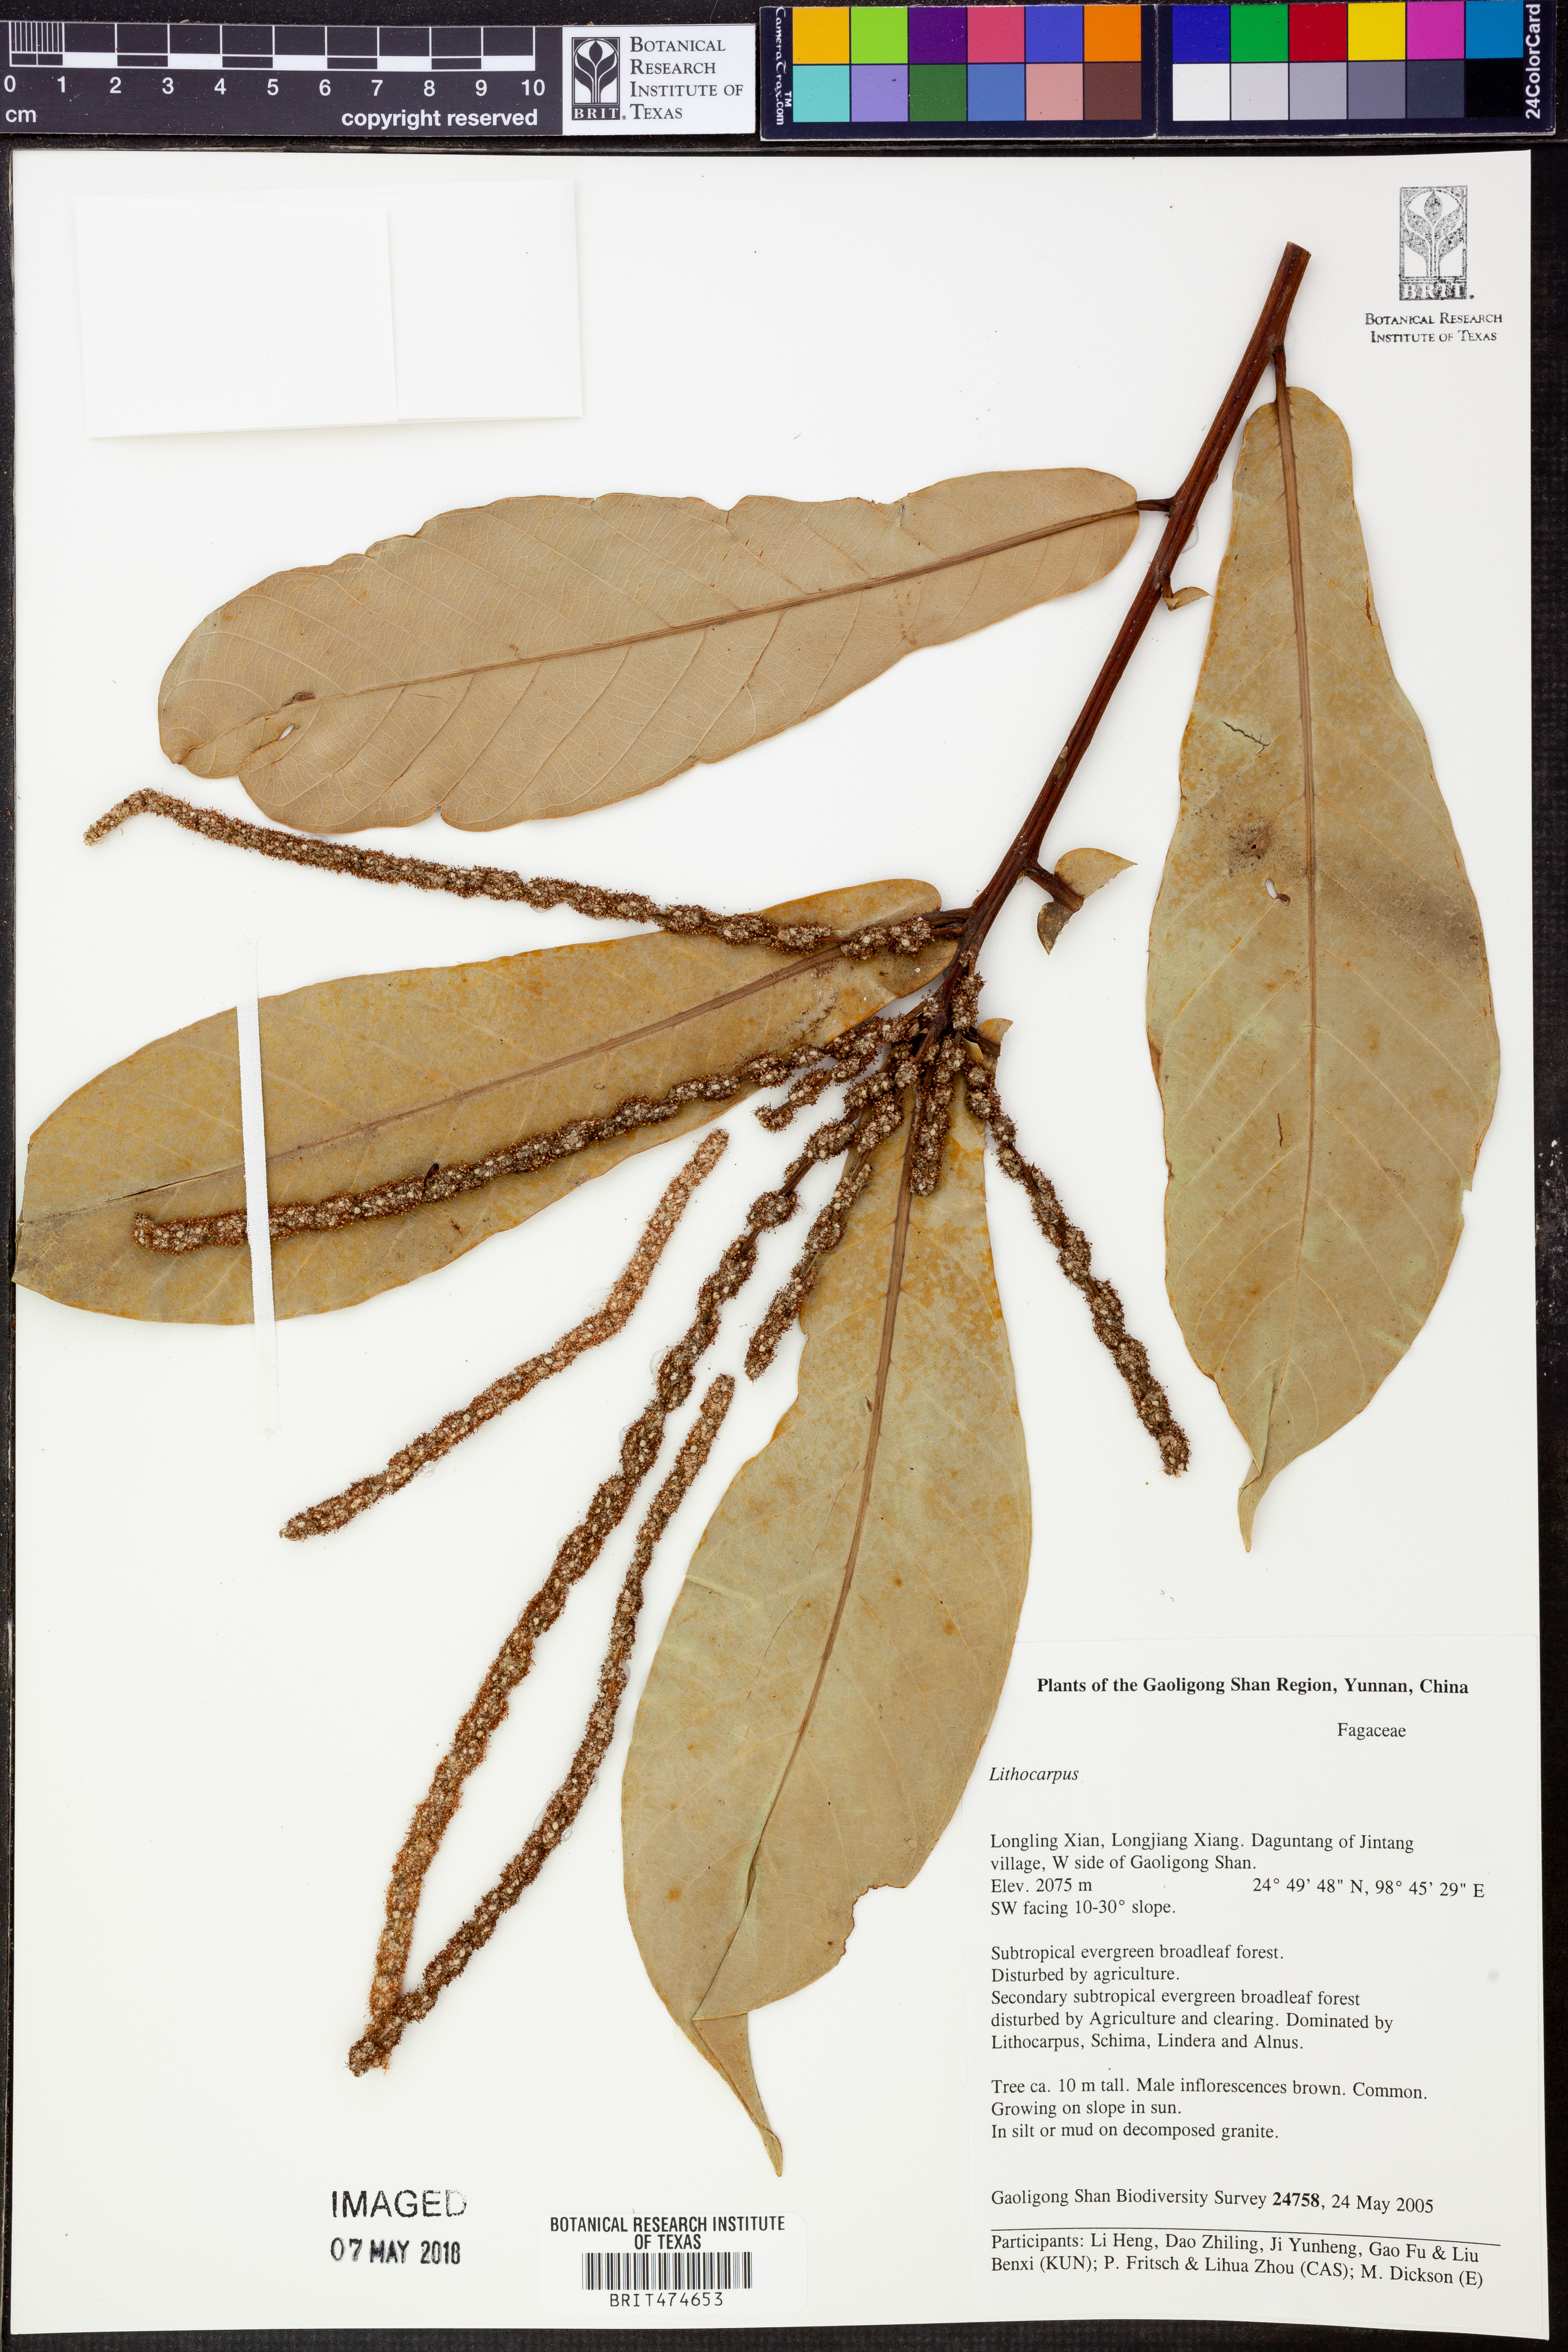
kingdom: Plantae
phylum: Tracheophyta
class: Magnoliopsida
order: Fagales
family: Fagaceae
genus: Lithocarpus
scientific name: Lithocarpus
